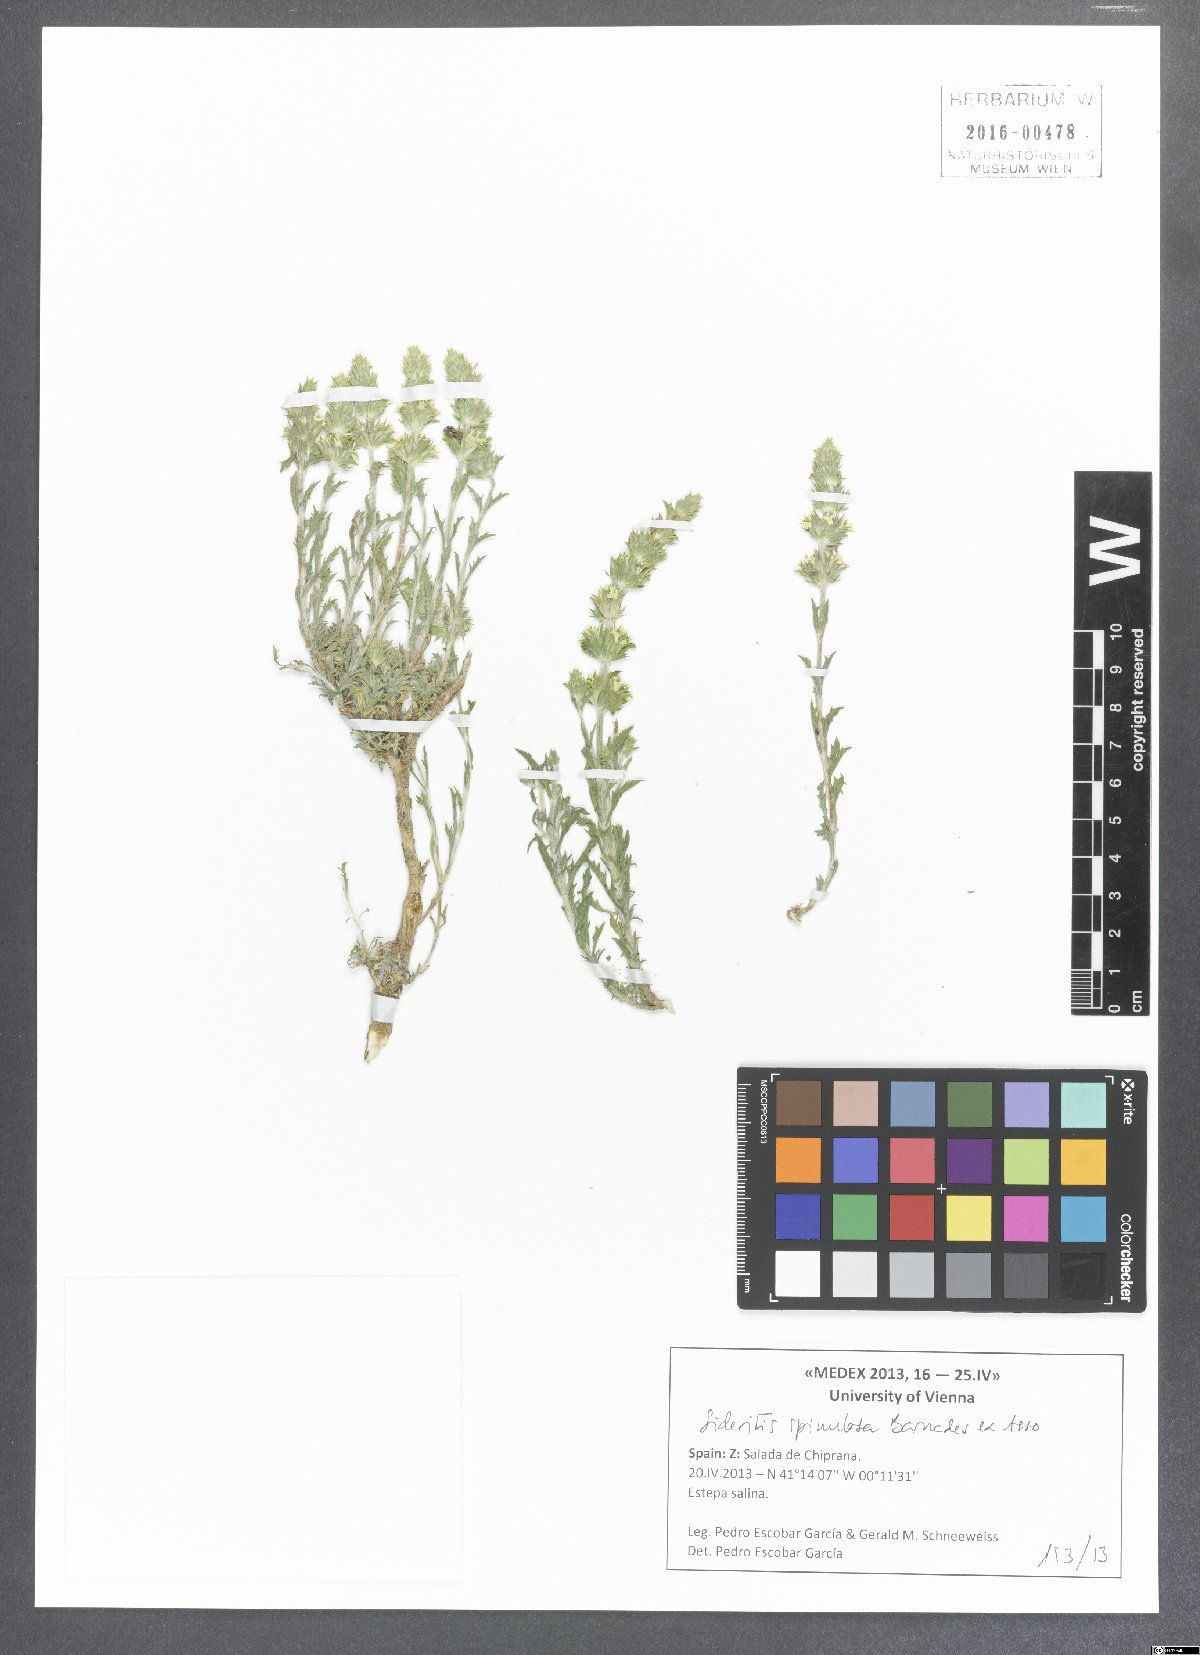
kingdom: Plantae
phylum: Tracheophyta
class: Magnoliopsida
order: Lamiales
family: Lamiaceae
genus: Sideritis
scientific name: Sideritis spinulosa
